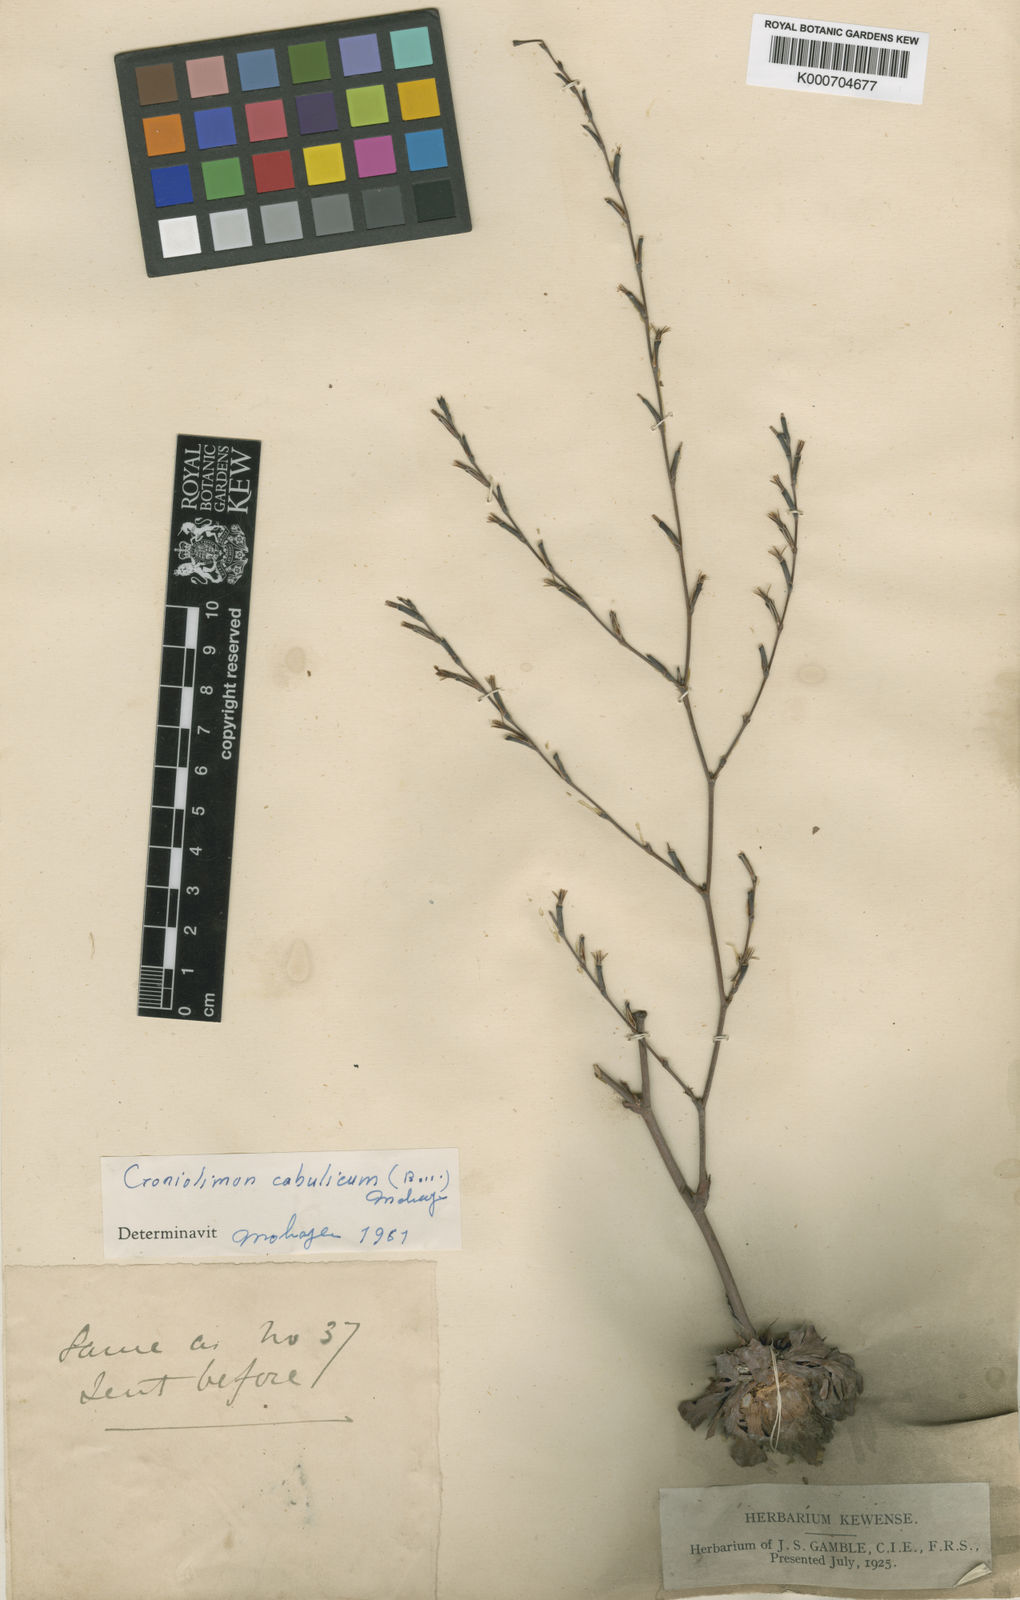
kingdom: Plantae
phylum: Tracheophyta
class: Magnoliopsida
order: Caryophyllales
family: Plumbaginaceae
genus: Bukiniczia
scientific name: Bukiniczia cabulica
